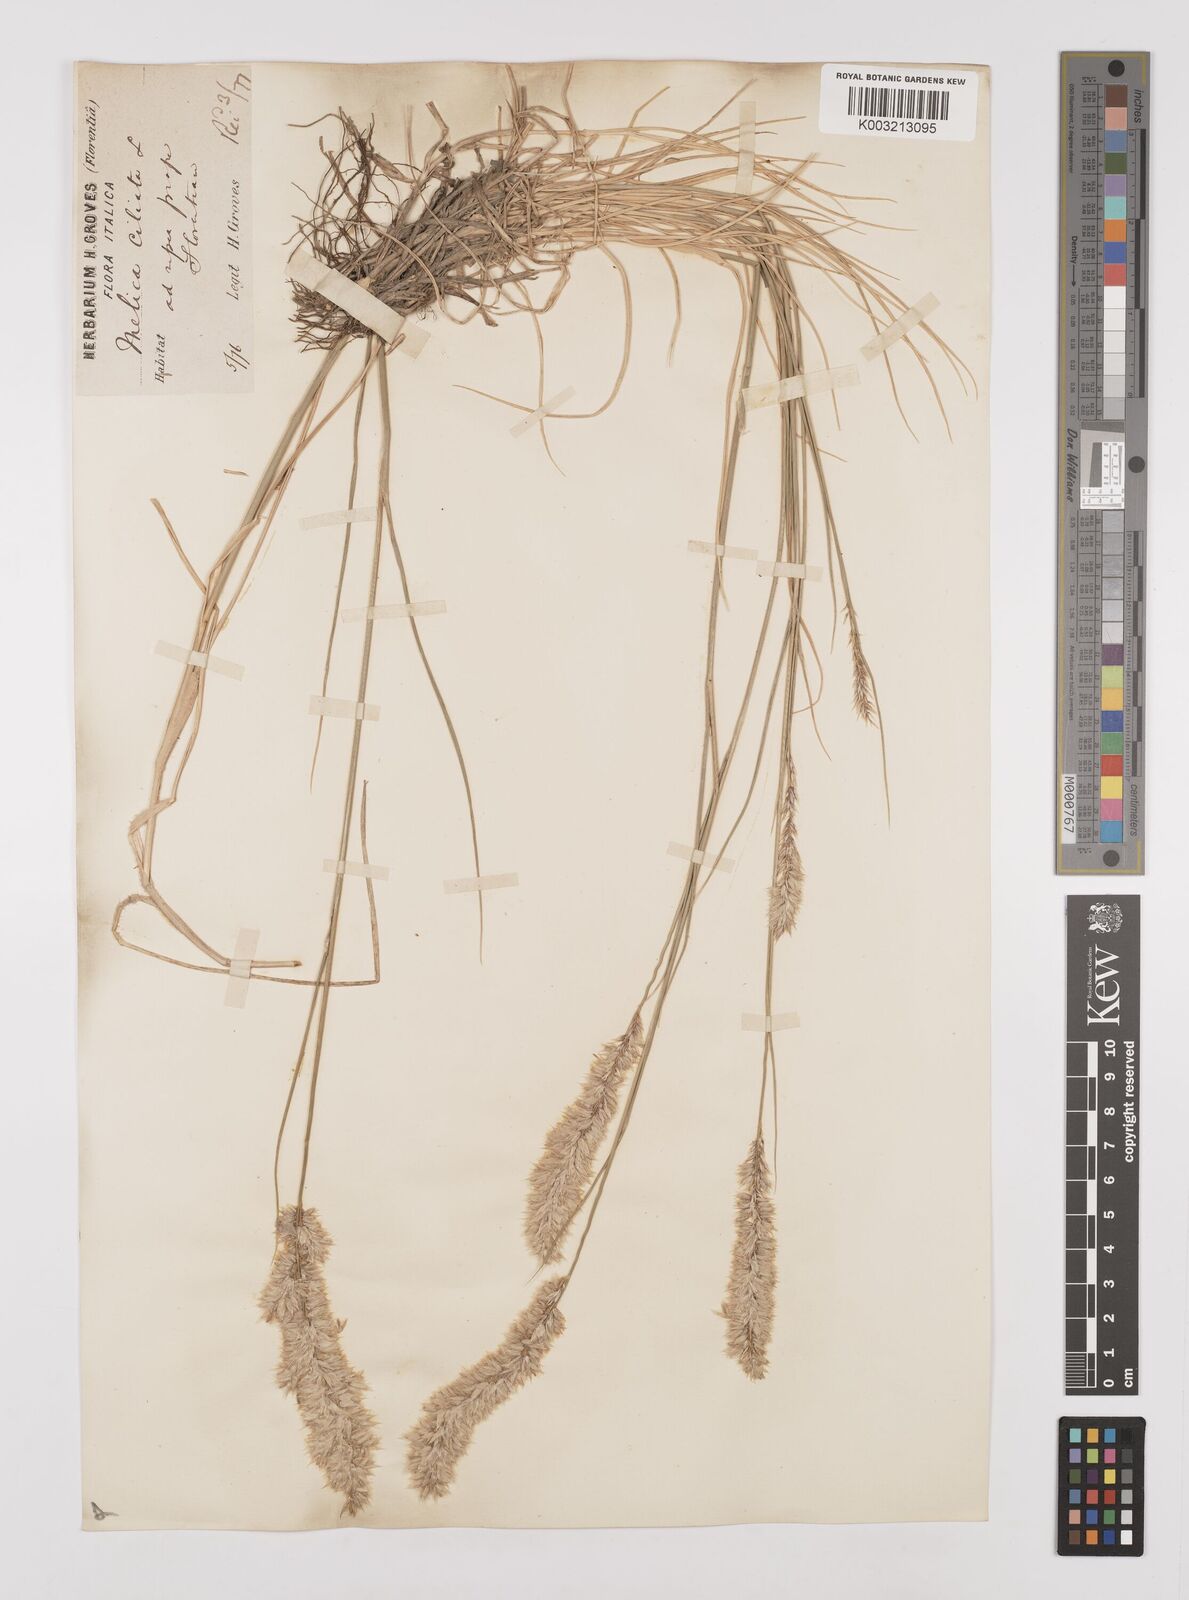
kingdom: Plantae
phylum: Tracheophyta
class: Liliopsida
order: Poales
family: Poaceae
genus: Melica
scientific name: Melica ciliata
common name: Hairy melicgrass
